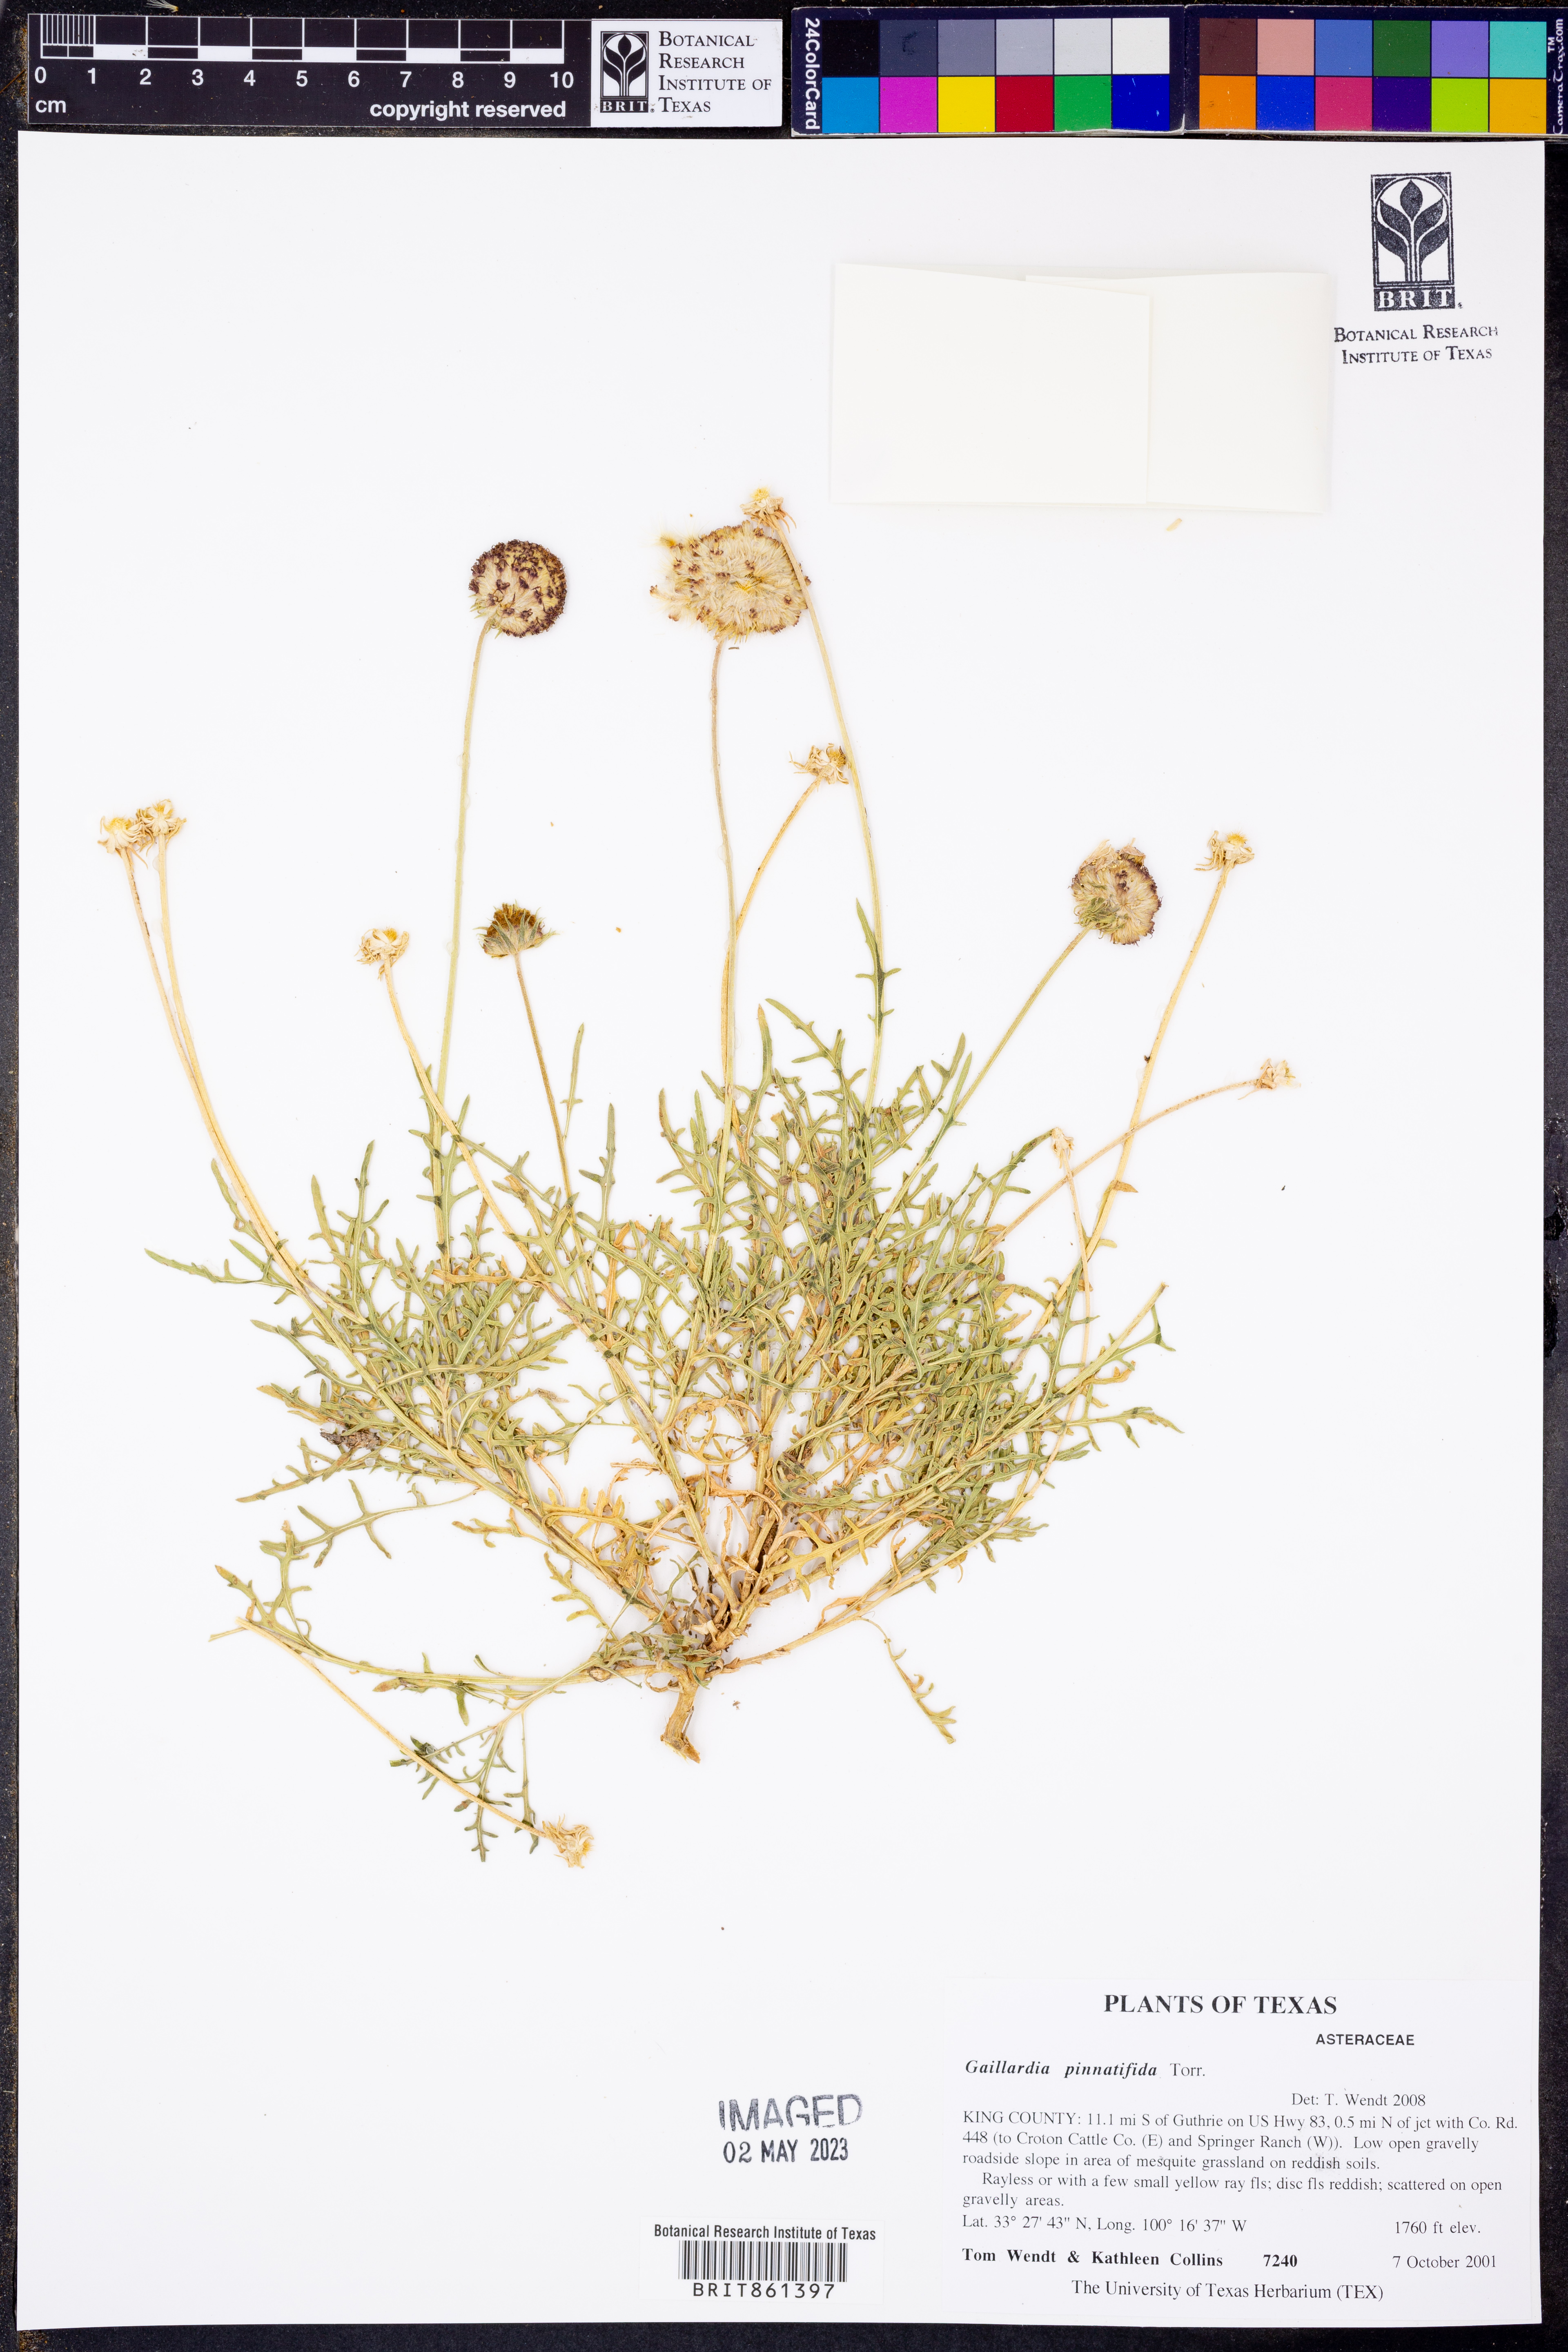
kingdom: Plantae
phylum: Tracheophyta
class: Magnoliopsida
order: Asterales
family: Asteraceae
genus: Gaillardia
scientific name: Gaillardia pinnatifida
